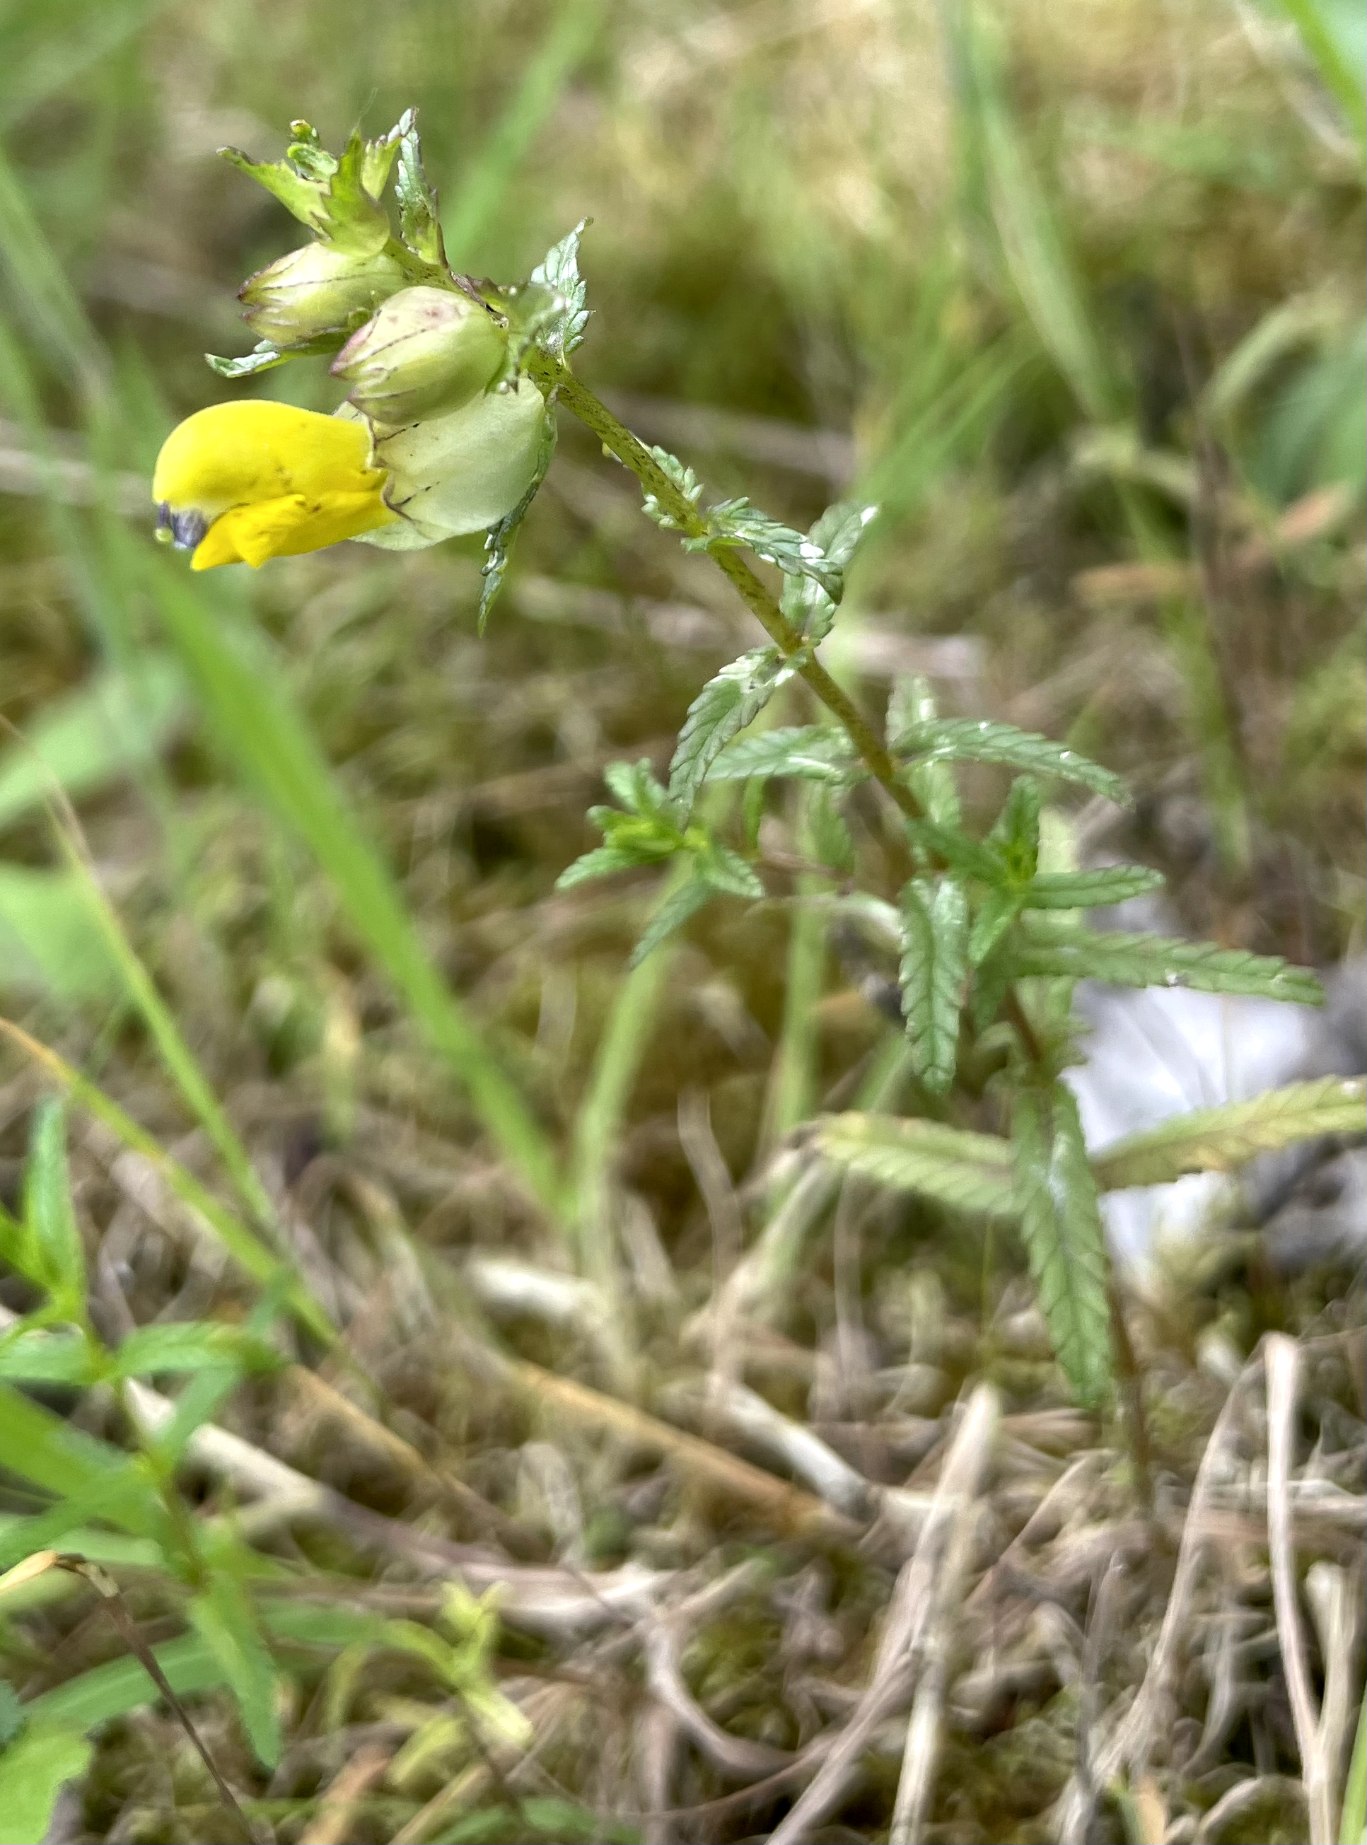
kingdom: Plantae
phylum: Tracheophyta
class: Magnoliopsida
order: Lamiales
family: Orobanchaceae
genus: Rhinanthus
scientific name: Rhinanthus
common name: Stor skjaller
